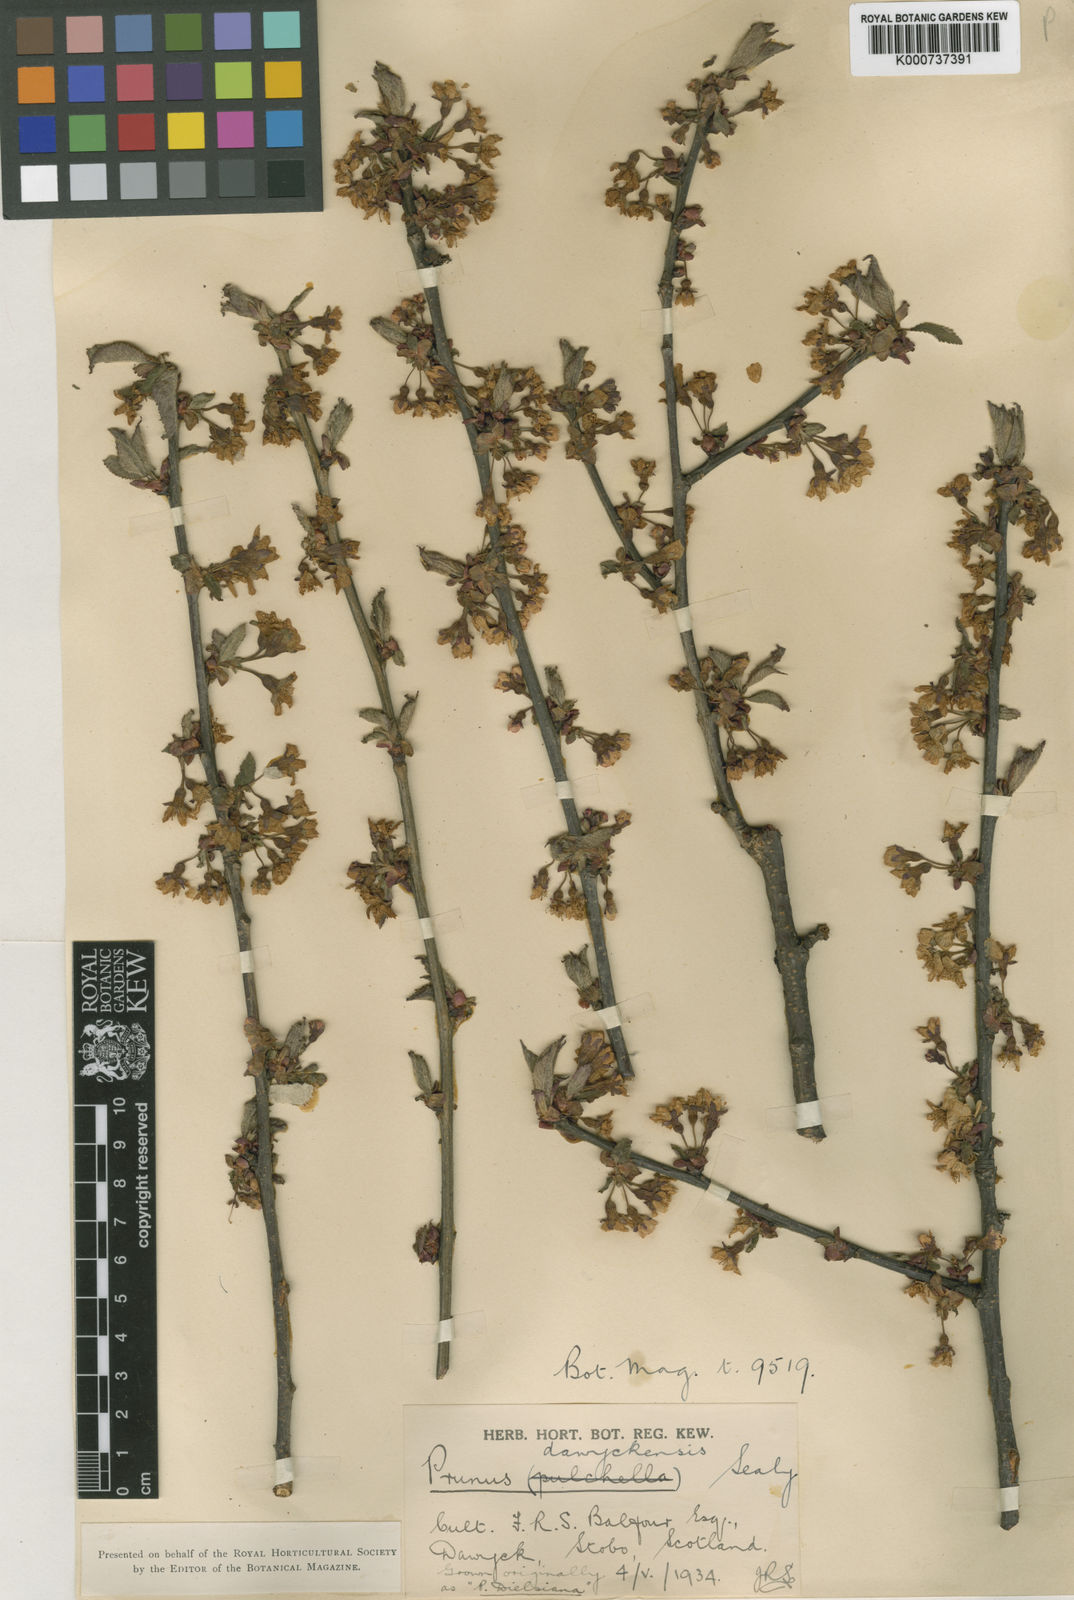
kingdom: Plantae
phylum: Tracheophyta
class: Magnoliopsida
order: Rosales
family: Rosaceae
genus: Prunus
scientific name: Prunus dawyckensis
